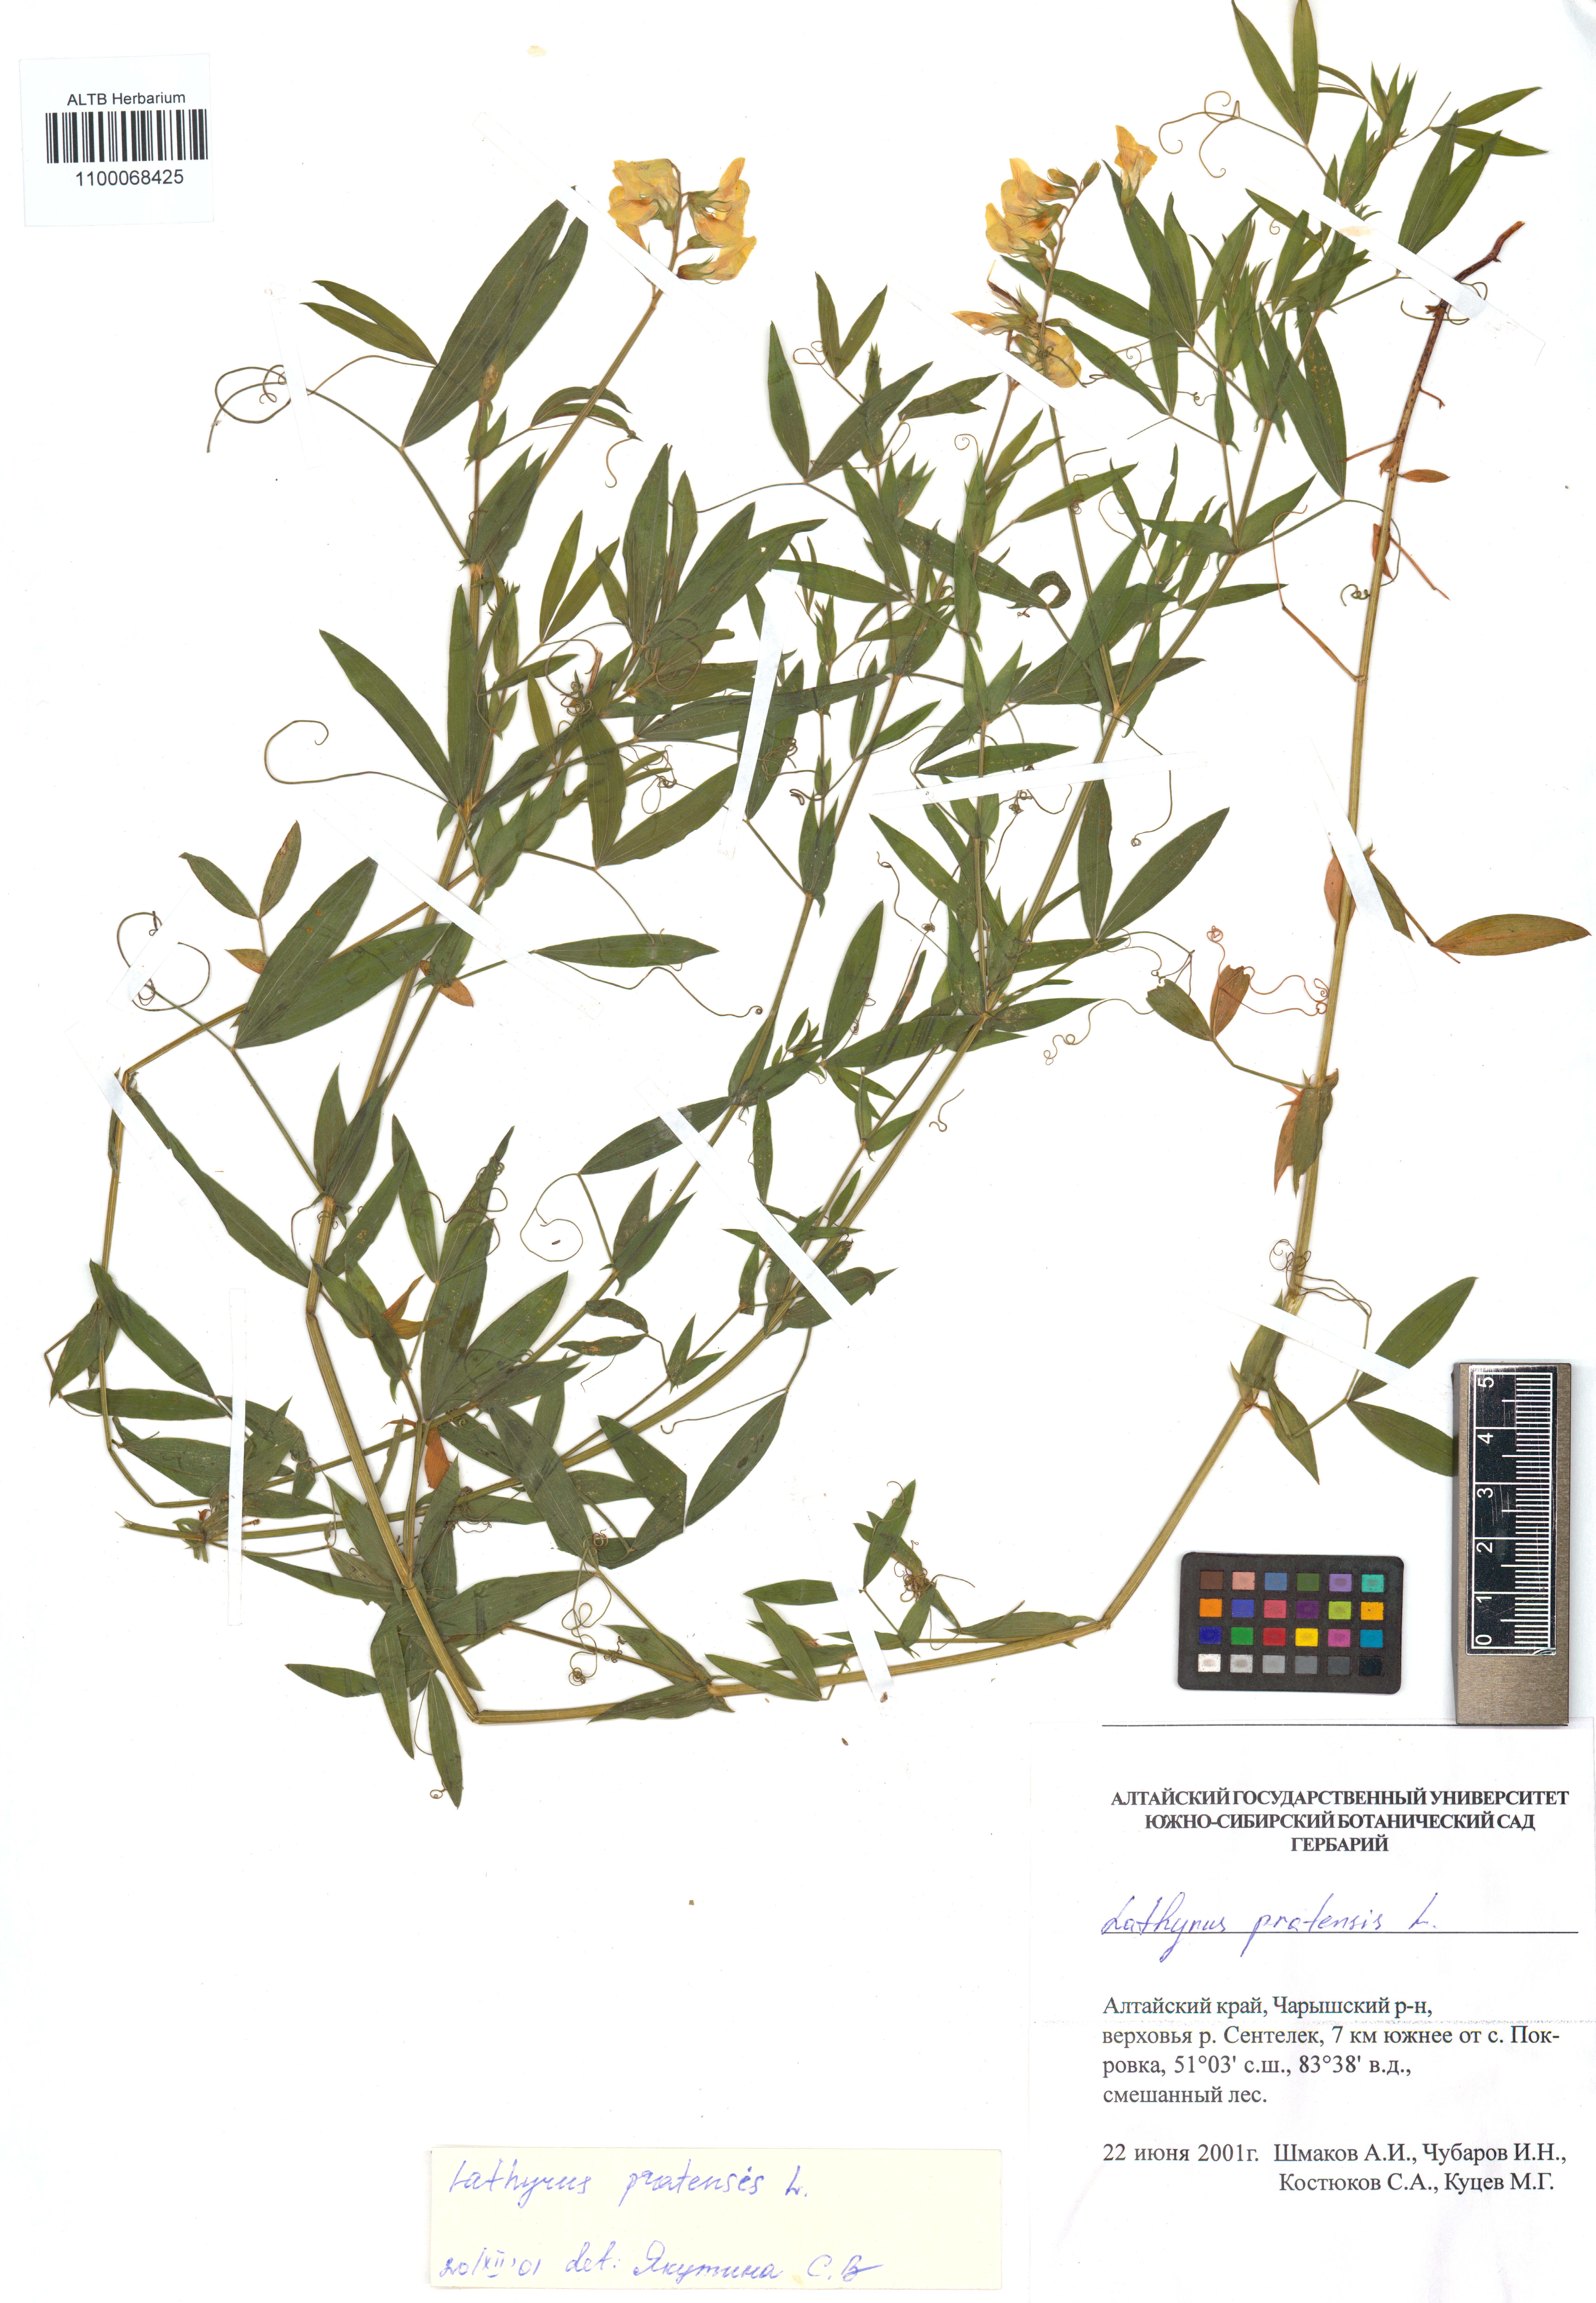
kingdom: Plantae
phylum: Tracheophyta
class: Magnoliopsida
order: Fabales
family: Fabaceae
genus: Lathyrus
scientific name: Lathyrus pratensis
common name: Meadow vetchling
